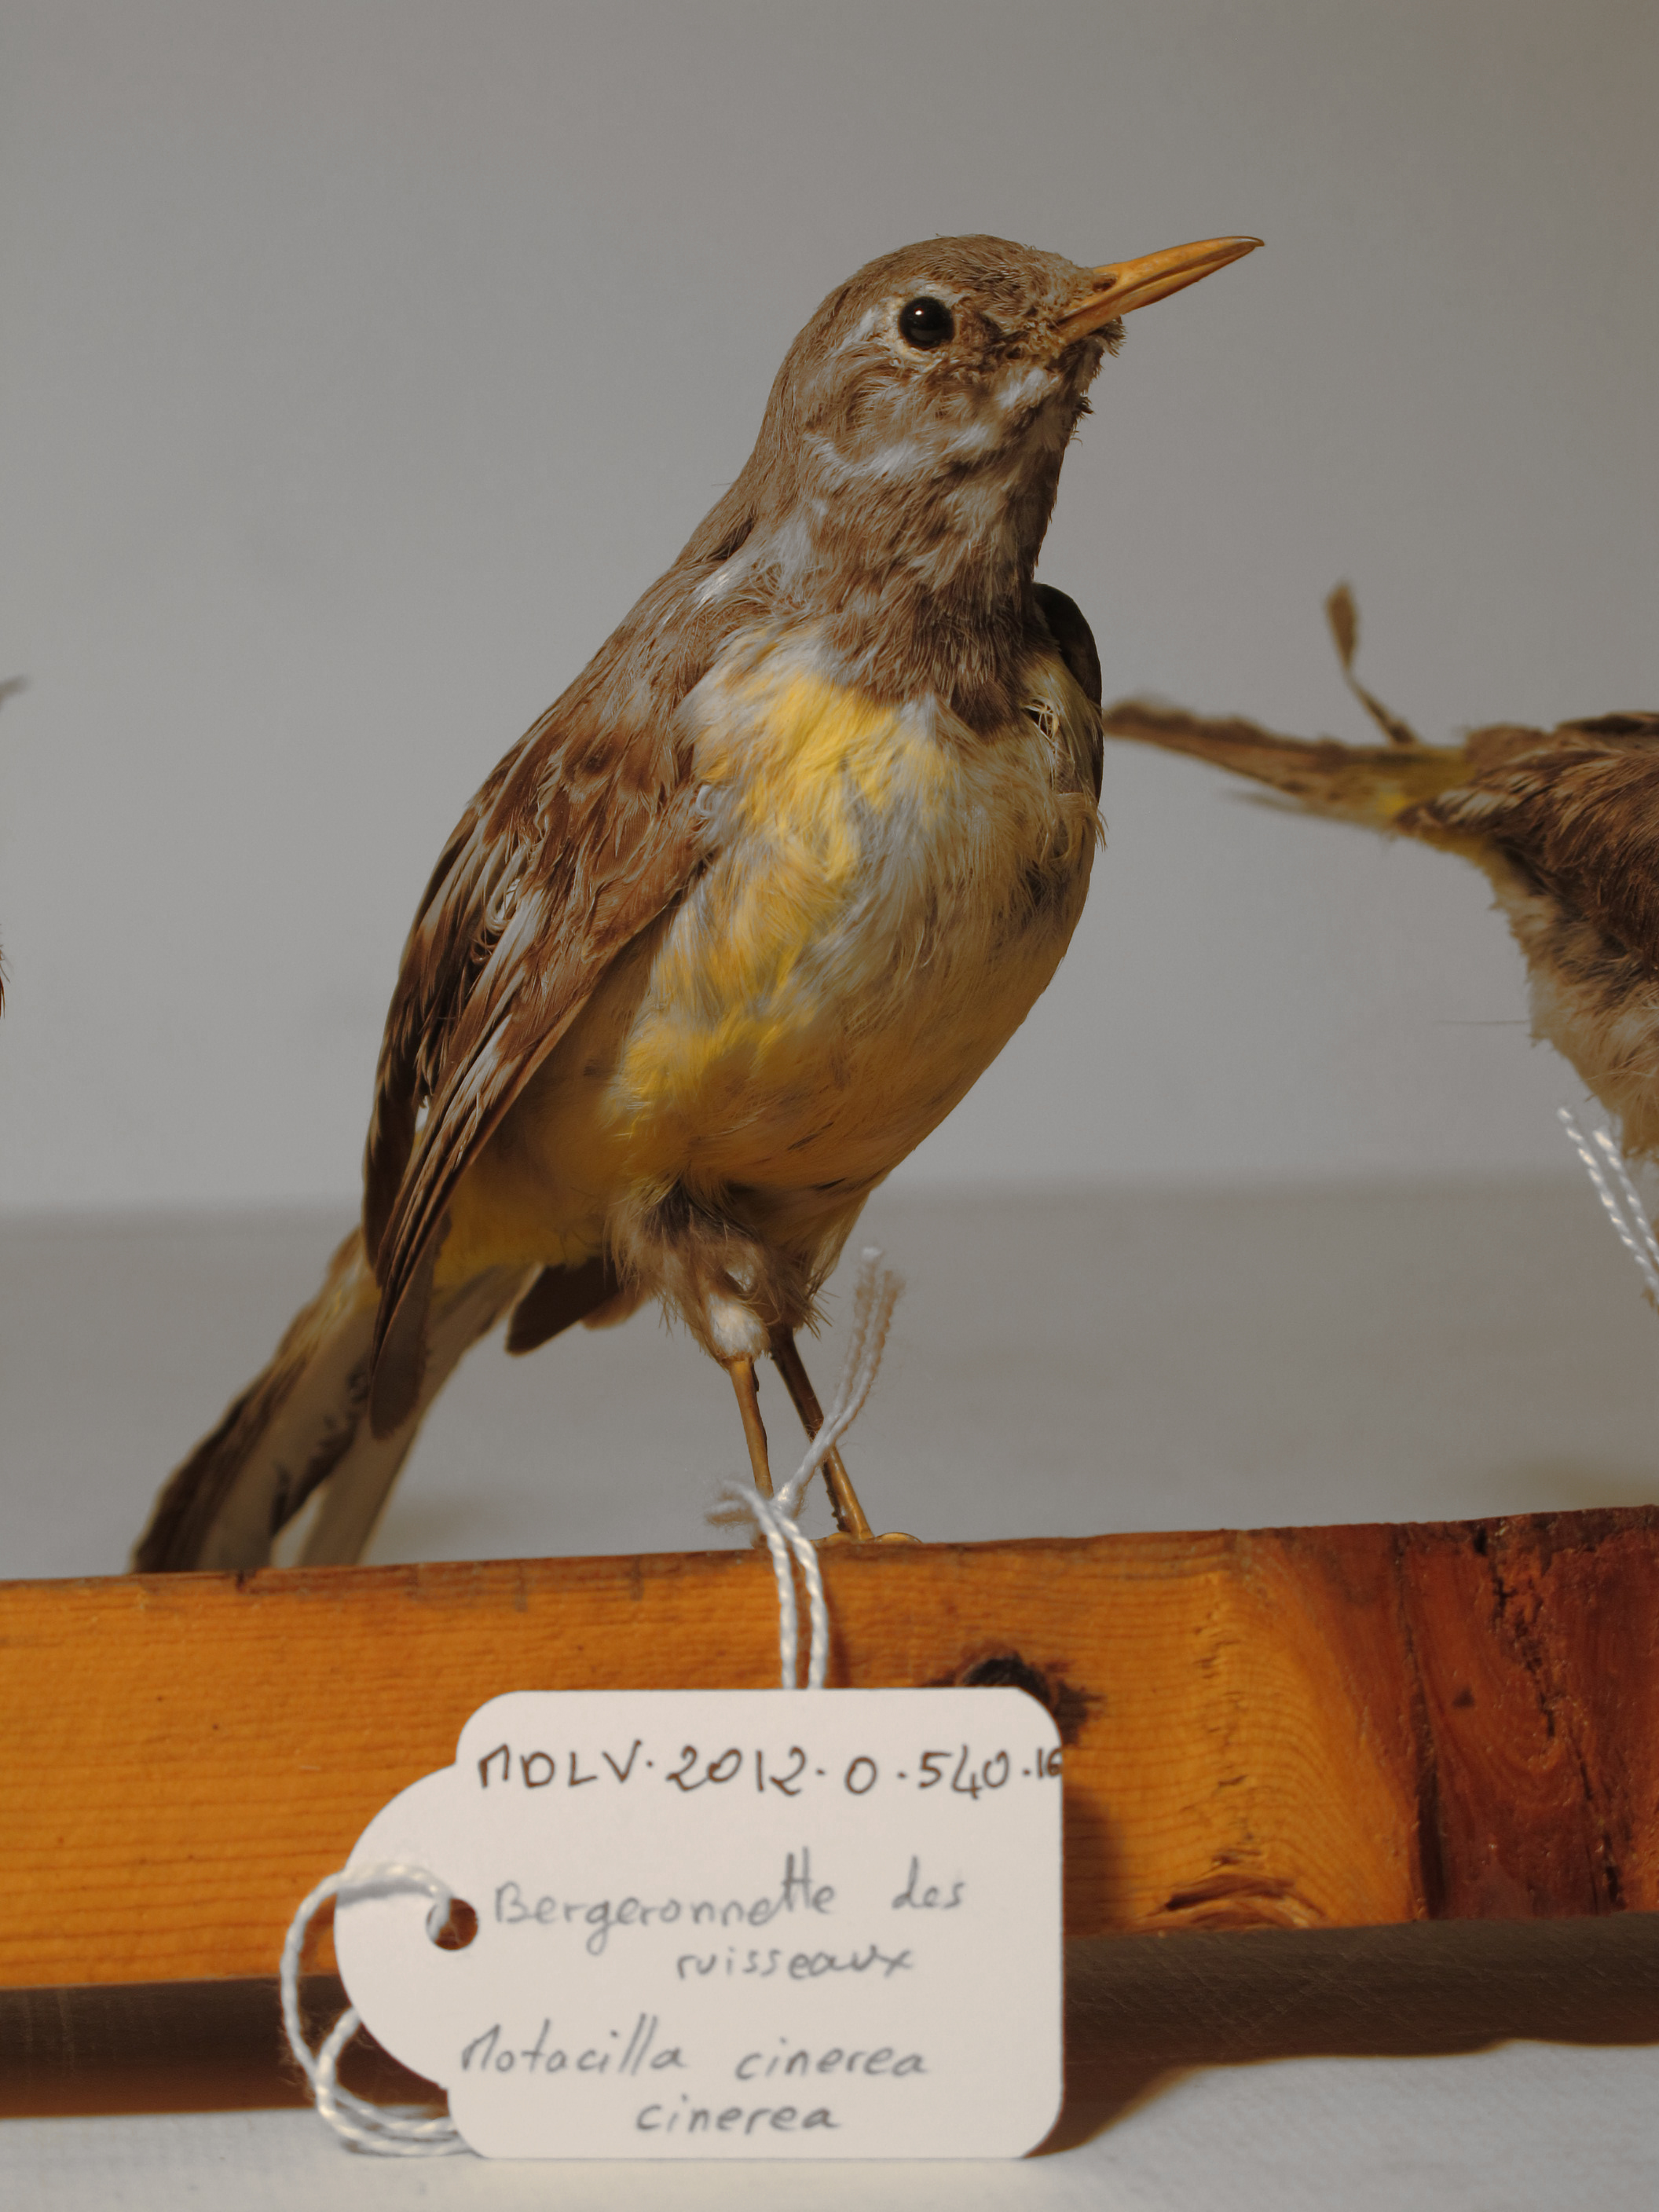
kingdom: Animalia
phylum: Chordata
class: Aves
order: Passeriformes
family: Motacillidae
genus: Motacilla
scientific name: Motacilla cinerea
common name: Grey Wagtail
